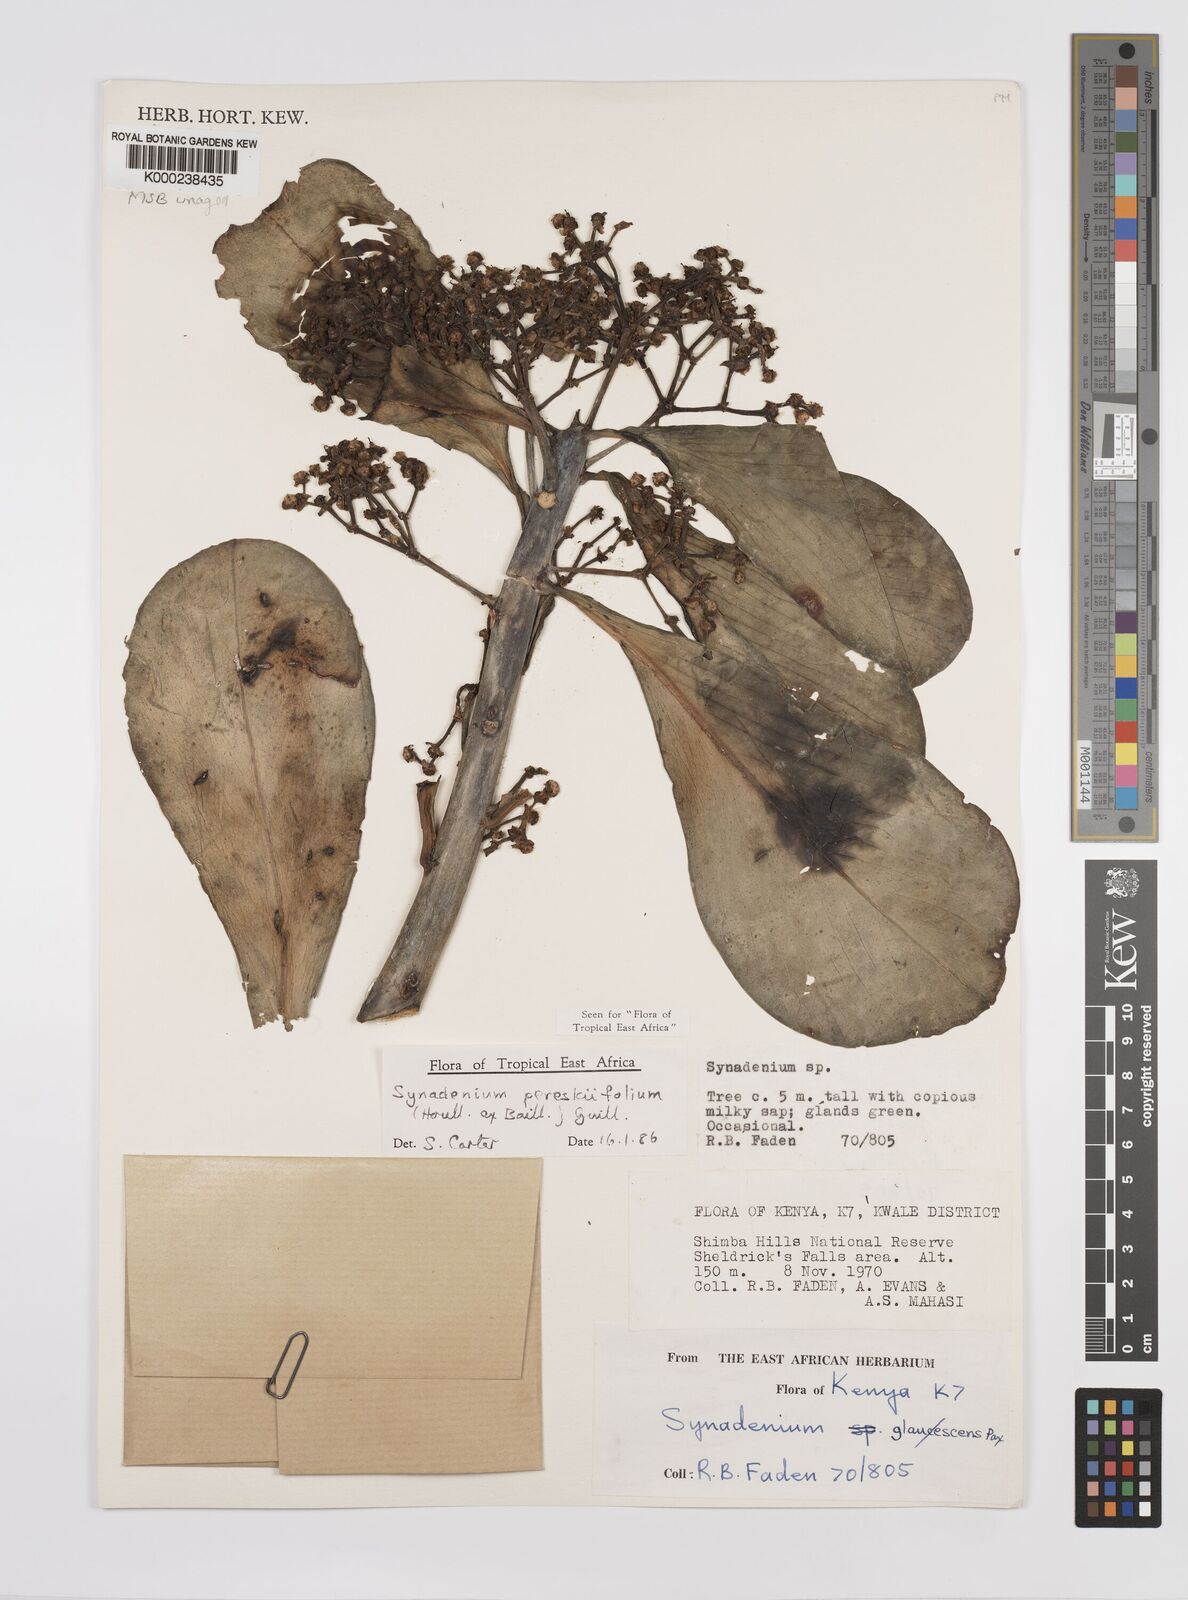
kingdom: Plantae
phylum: Tracheophyta
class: Magnoliopsida
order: Malpighiales
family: Euphorbiaceae
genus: Euphorbia
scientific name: Euphorbia pereskiifolia
